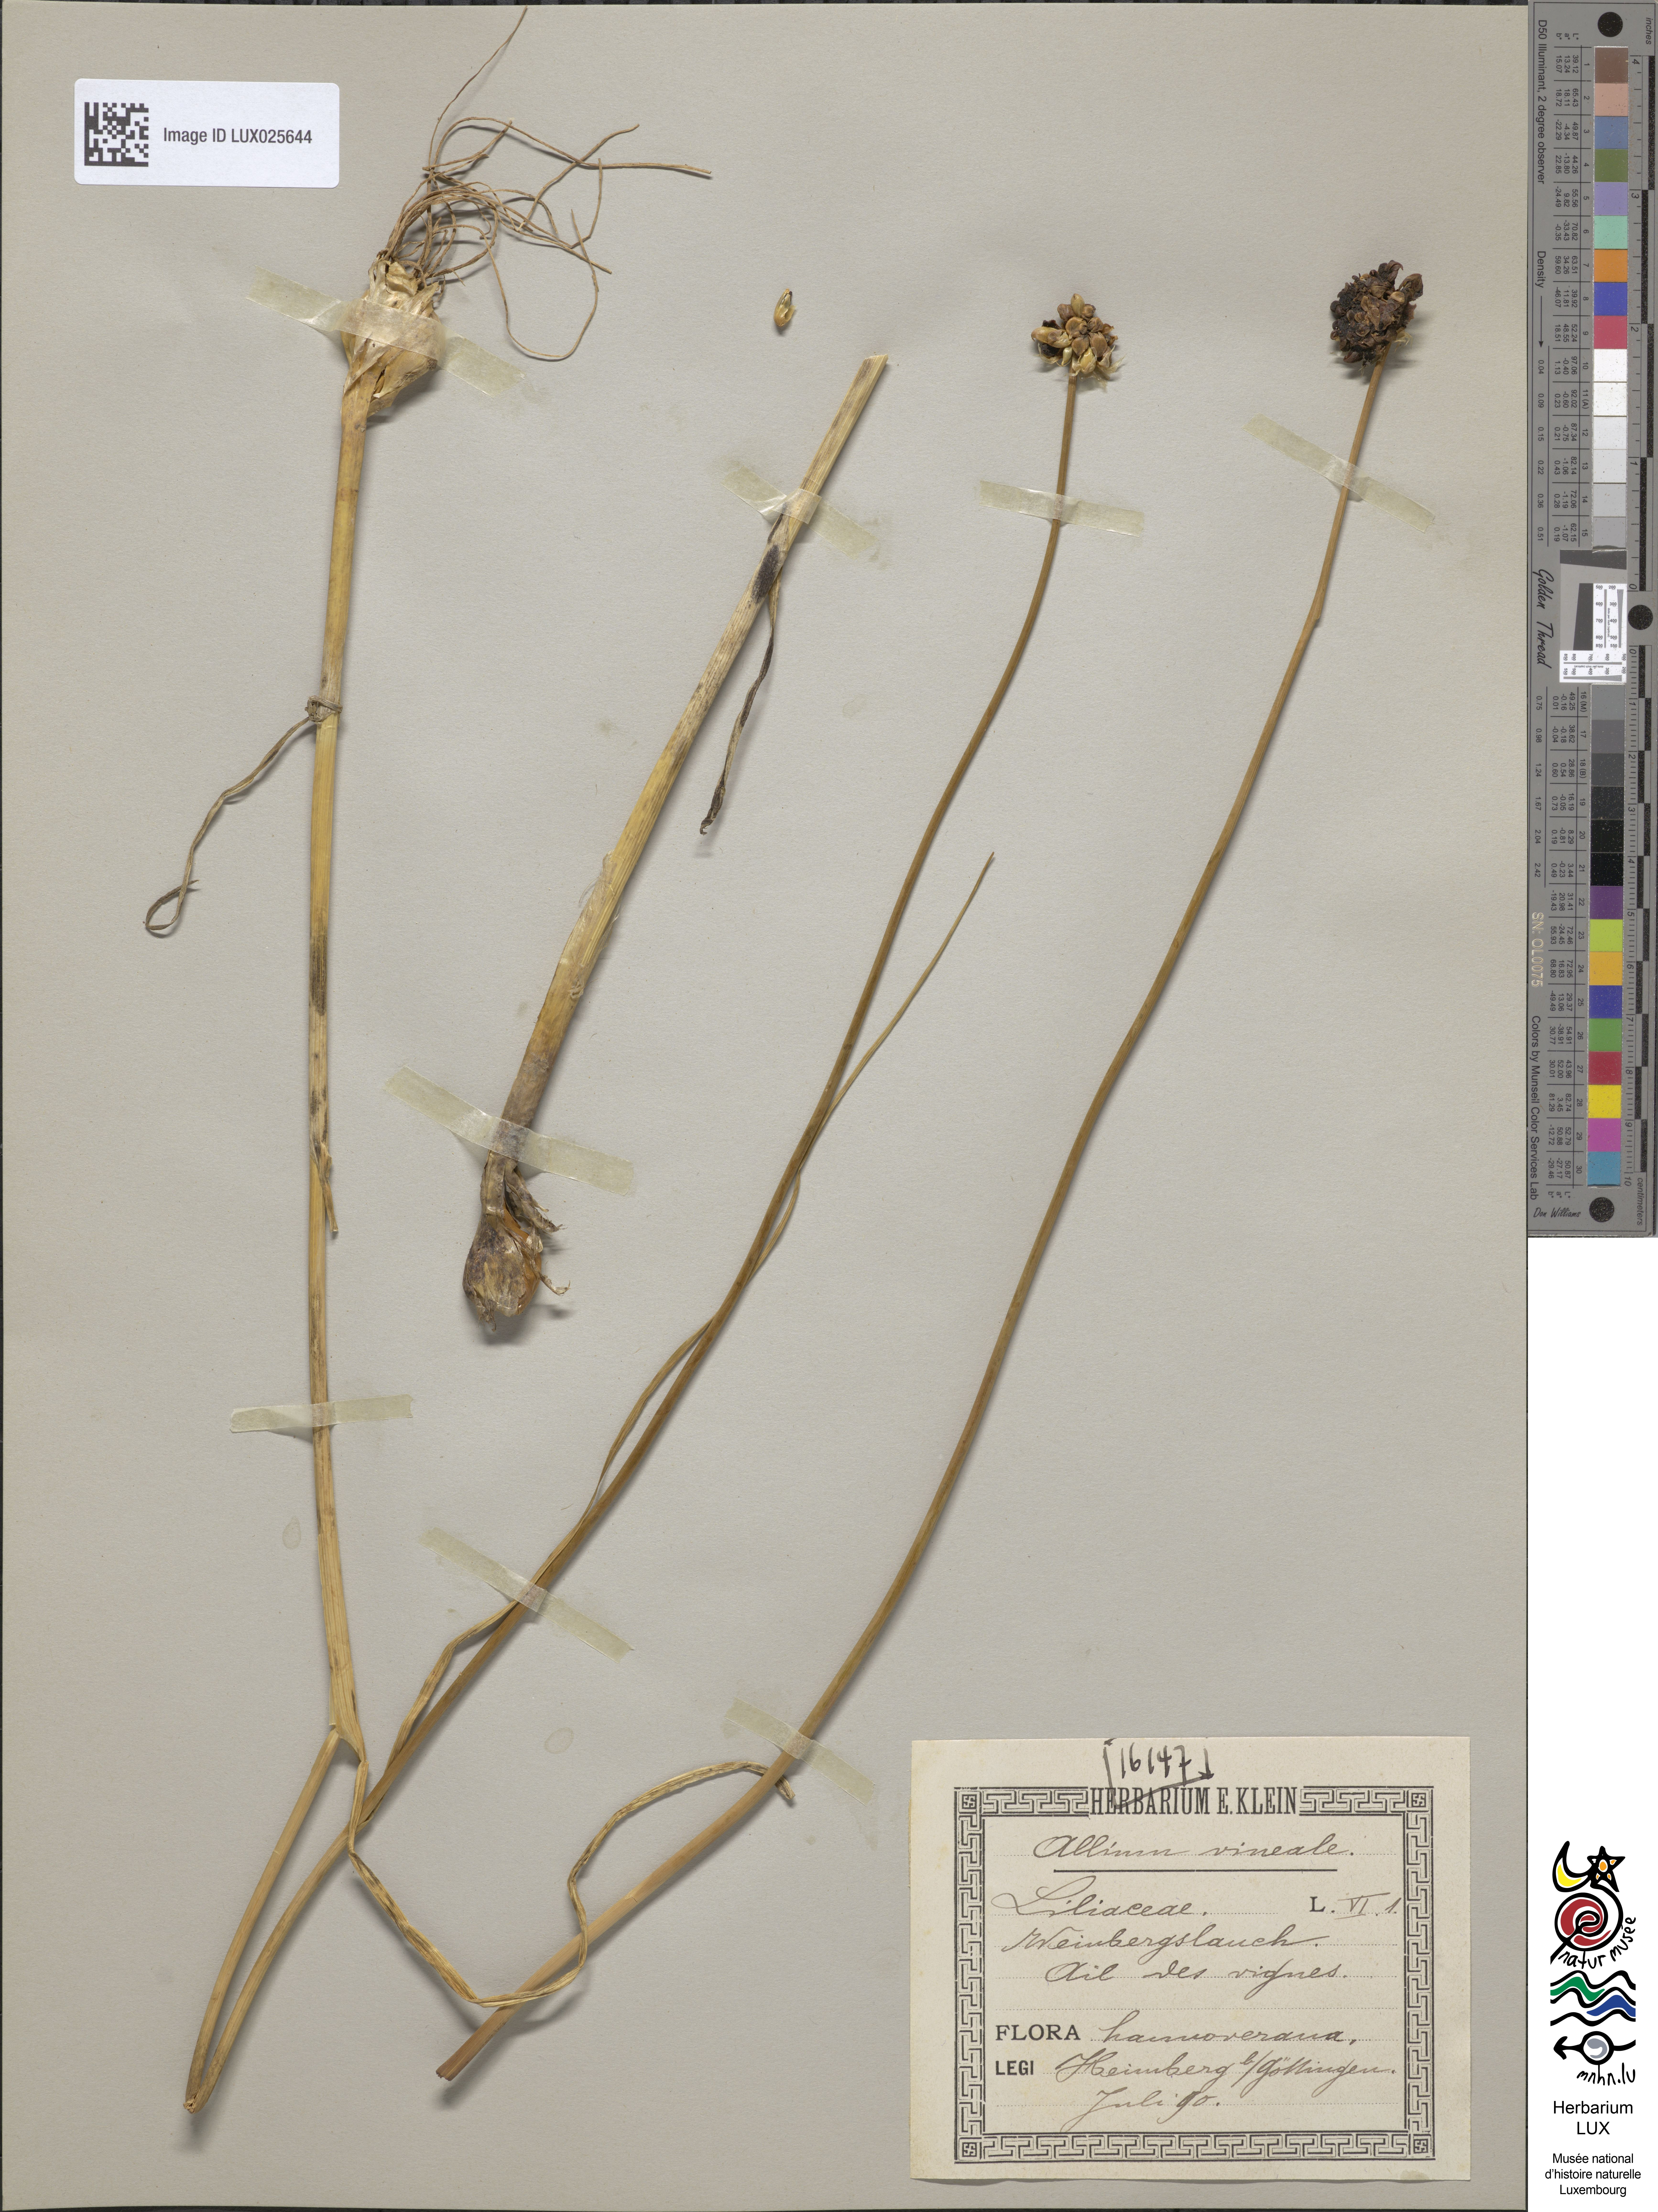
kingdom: Plantae
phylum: Tracheophyta
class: Liliopsida
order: Asparagales
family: Amaryllidaceae
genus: Allium
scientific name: Allium vineale
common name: Crow garlic
